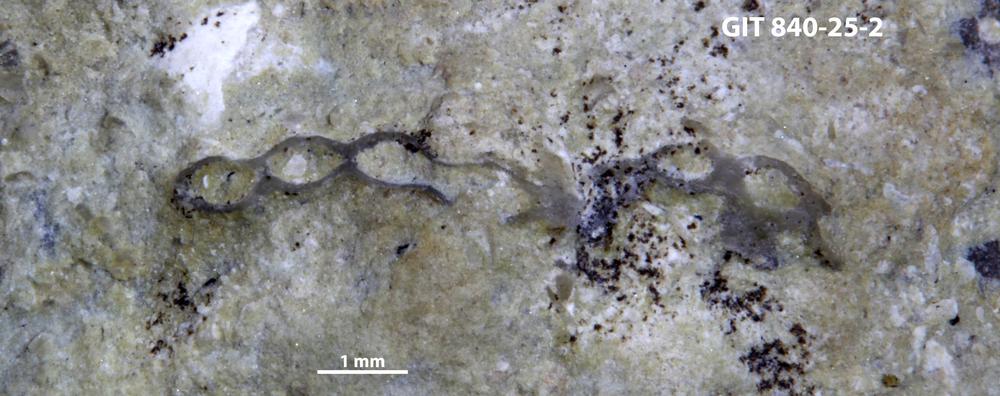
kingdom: Animalia
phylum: Cnidaria
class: Anthozoa
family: Cateniporidae
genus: Catenipora
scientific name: Catenipora
